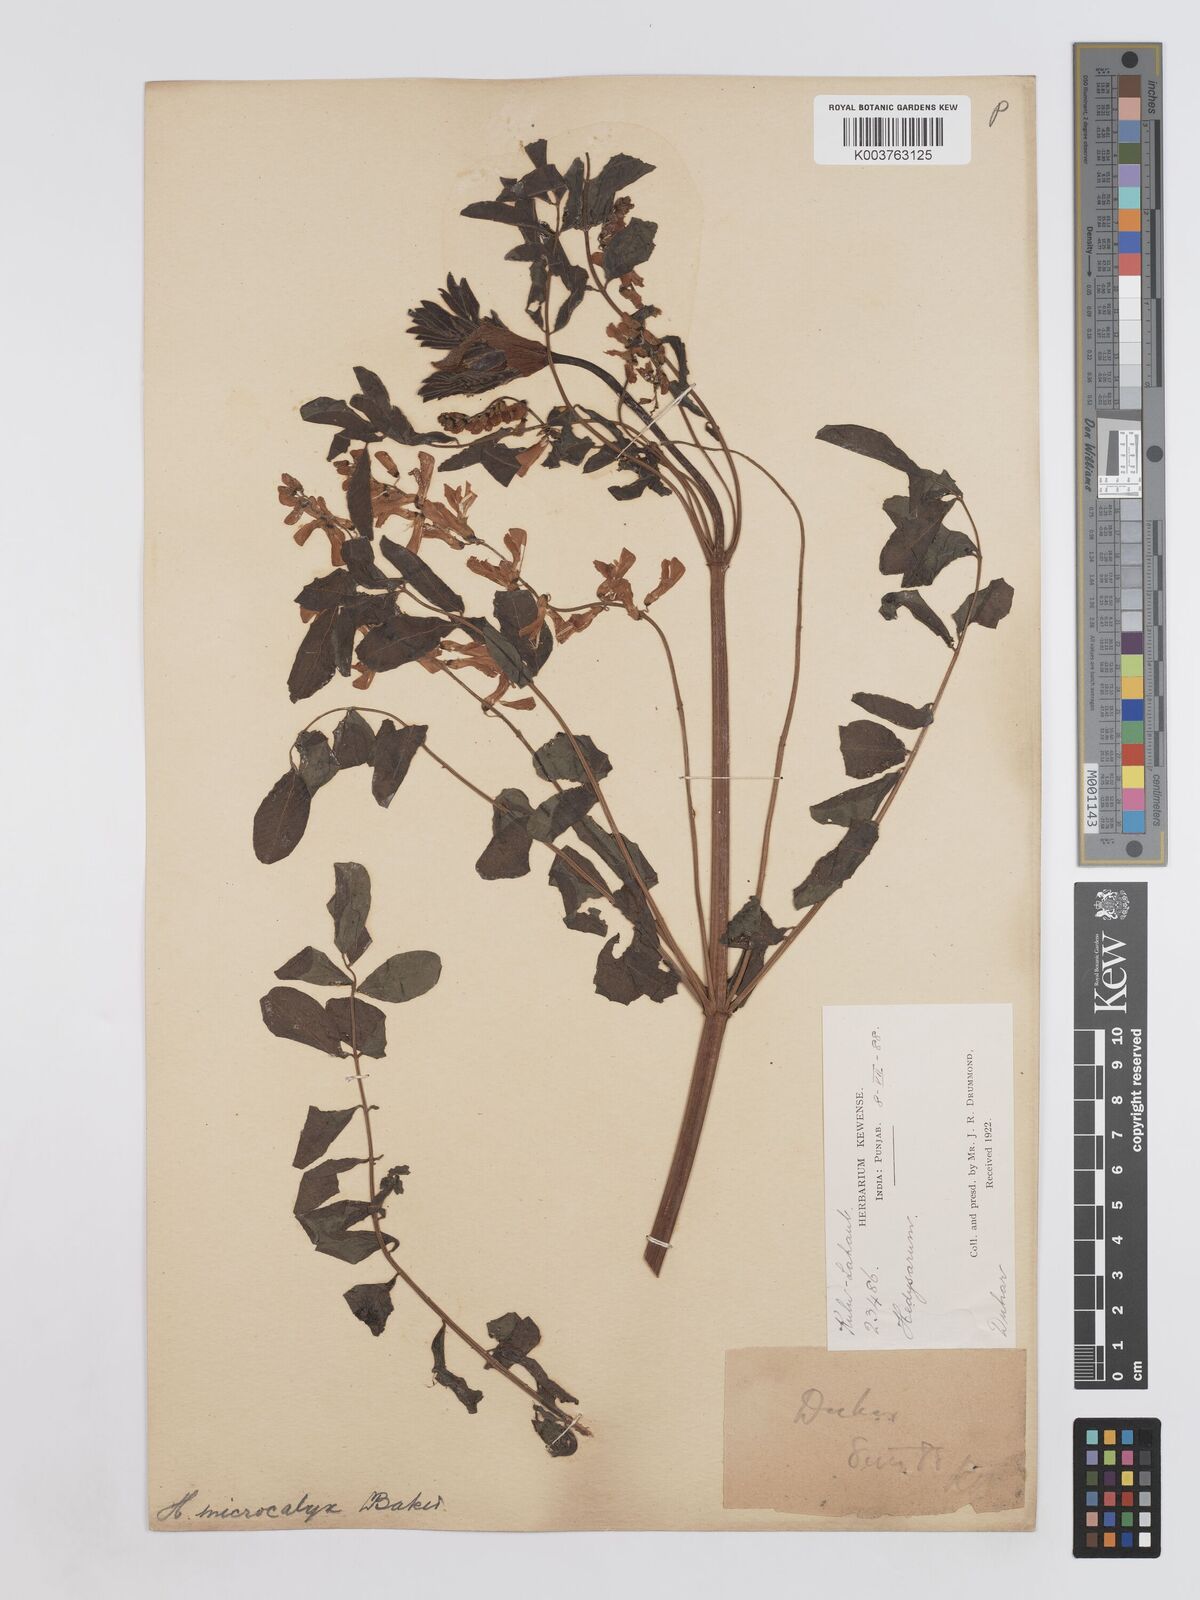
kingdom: Plantae
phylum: Tracheophyta
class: Magnoliopsida
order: Fabales
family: Fabaceae
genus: Hedysarum
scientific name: Hedysarum microcalyx
